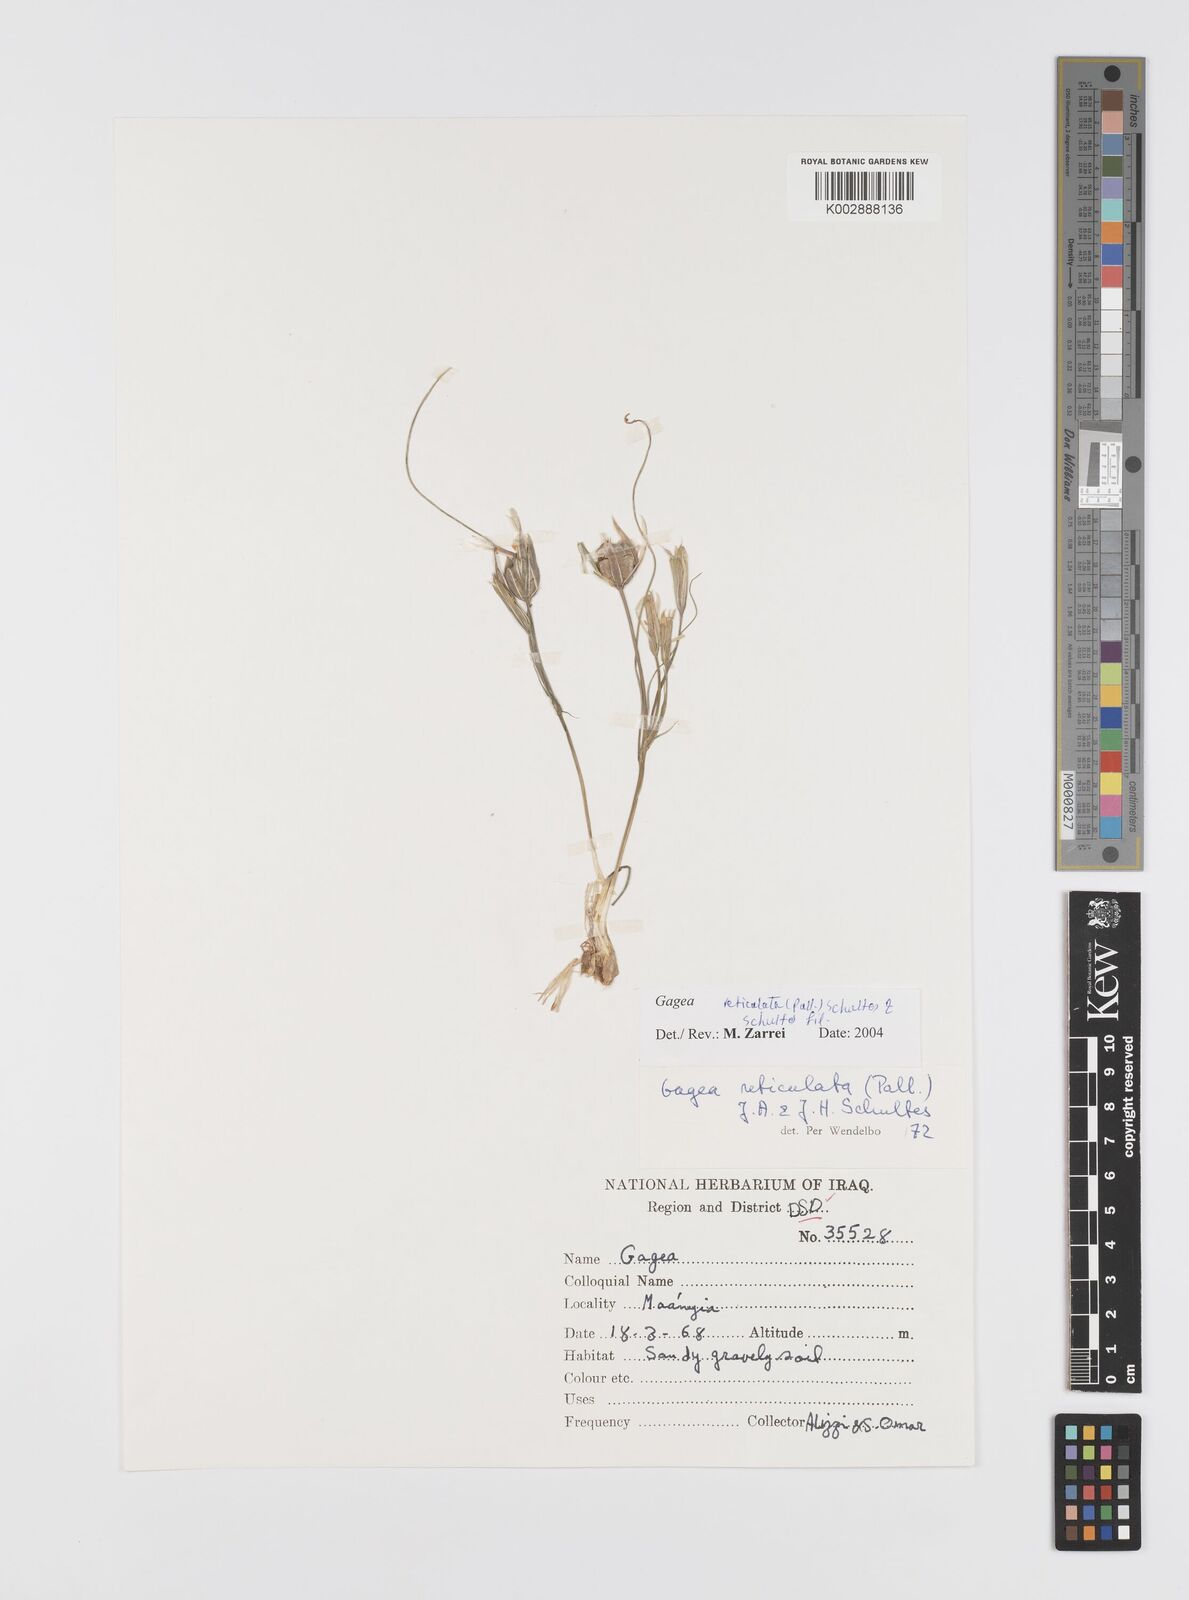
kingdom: Plantae
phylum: Tracheophyta
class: Liliopsida
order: Liliales
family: Liliaceae
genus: Gagea
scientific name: Gagea reticulata
